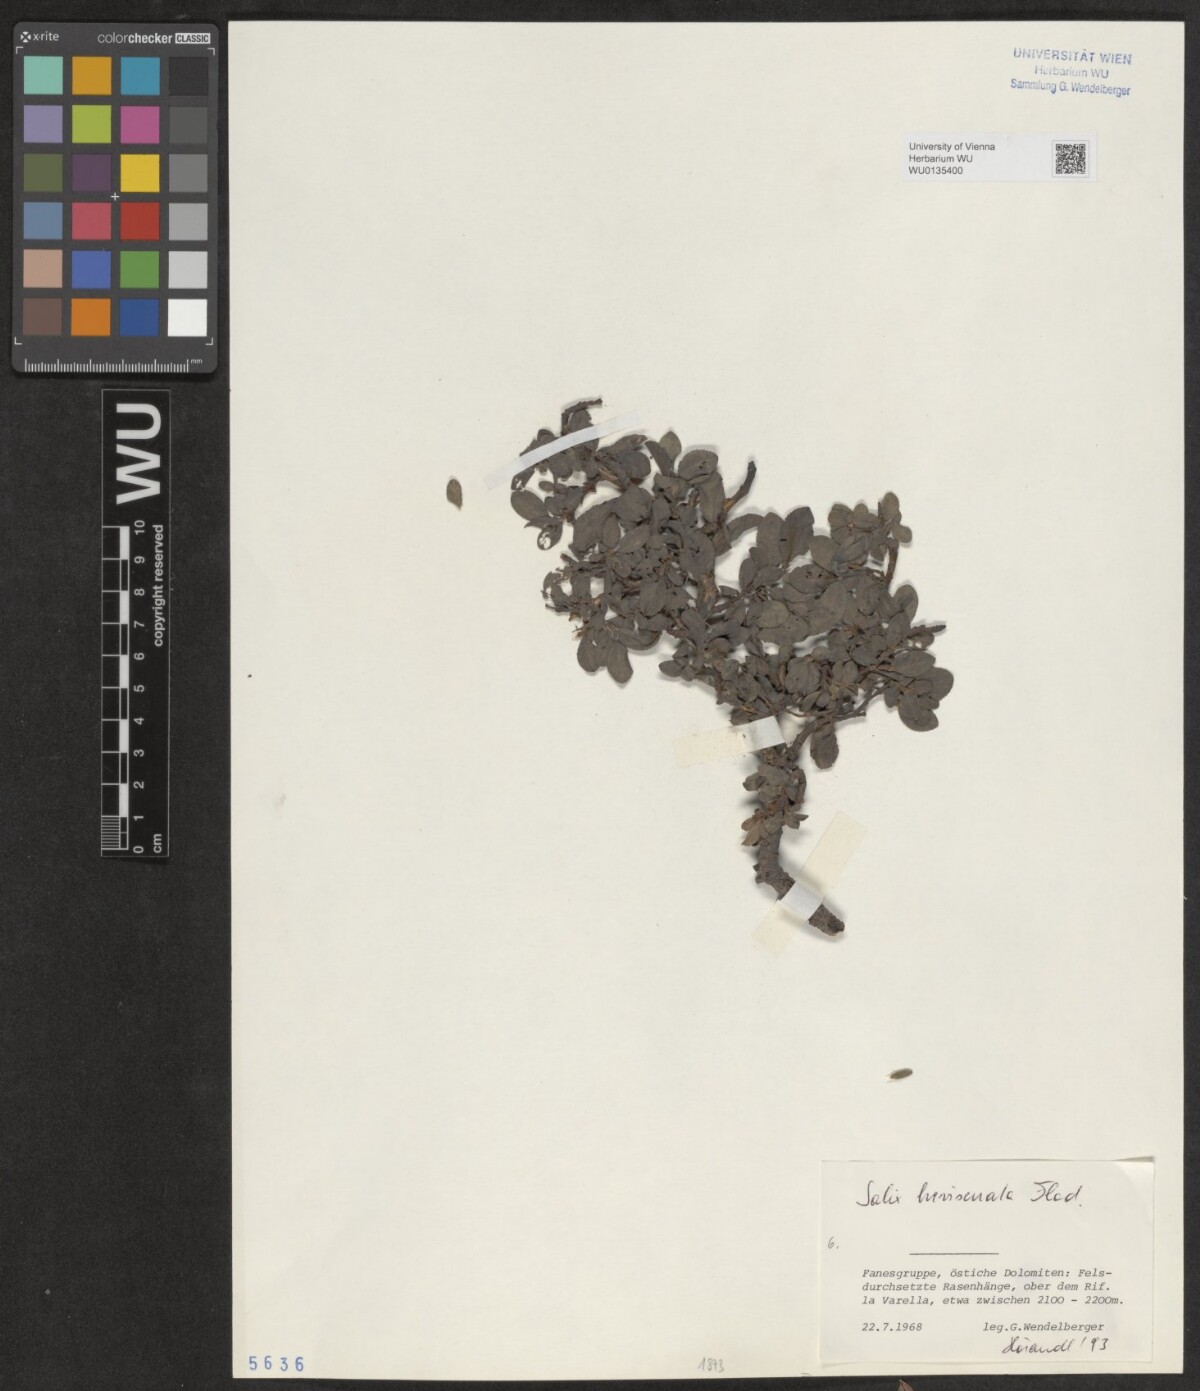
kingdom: Plantae
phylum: Tracheophyta
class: Magnoliopsida
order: Malpighiales
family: Salicaceae
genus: Salix
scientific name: Salix breviserrata
